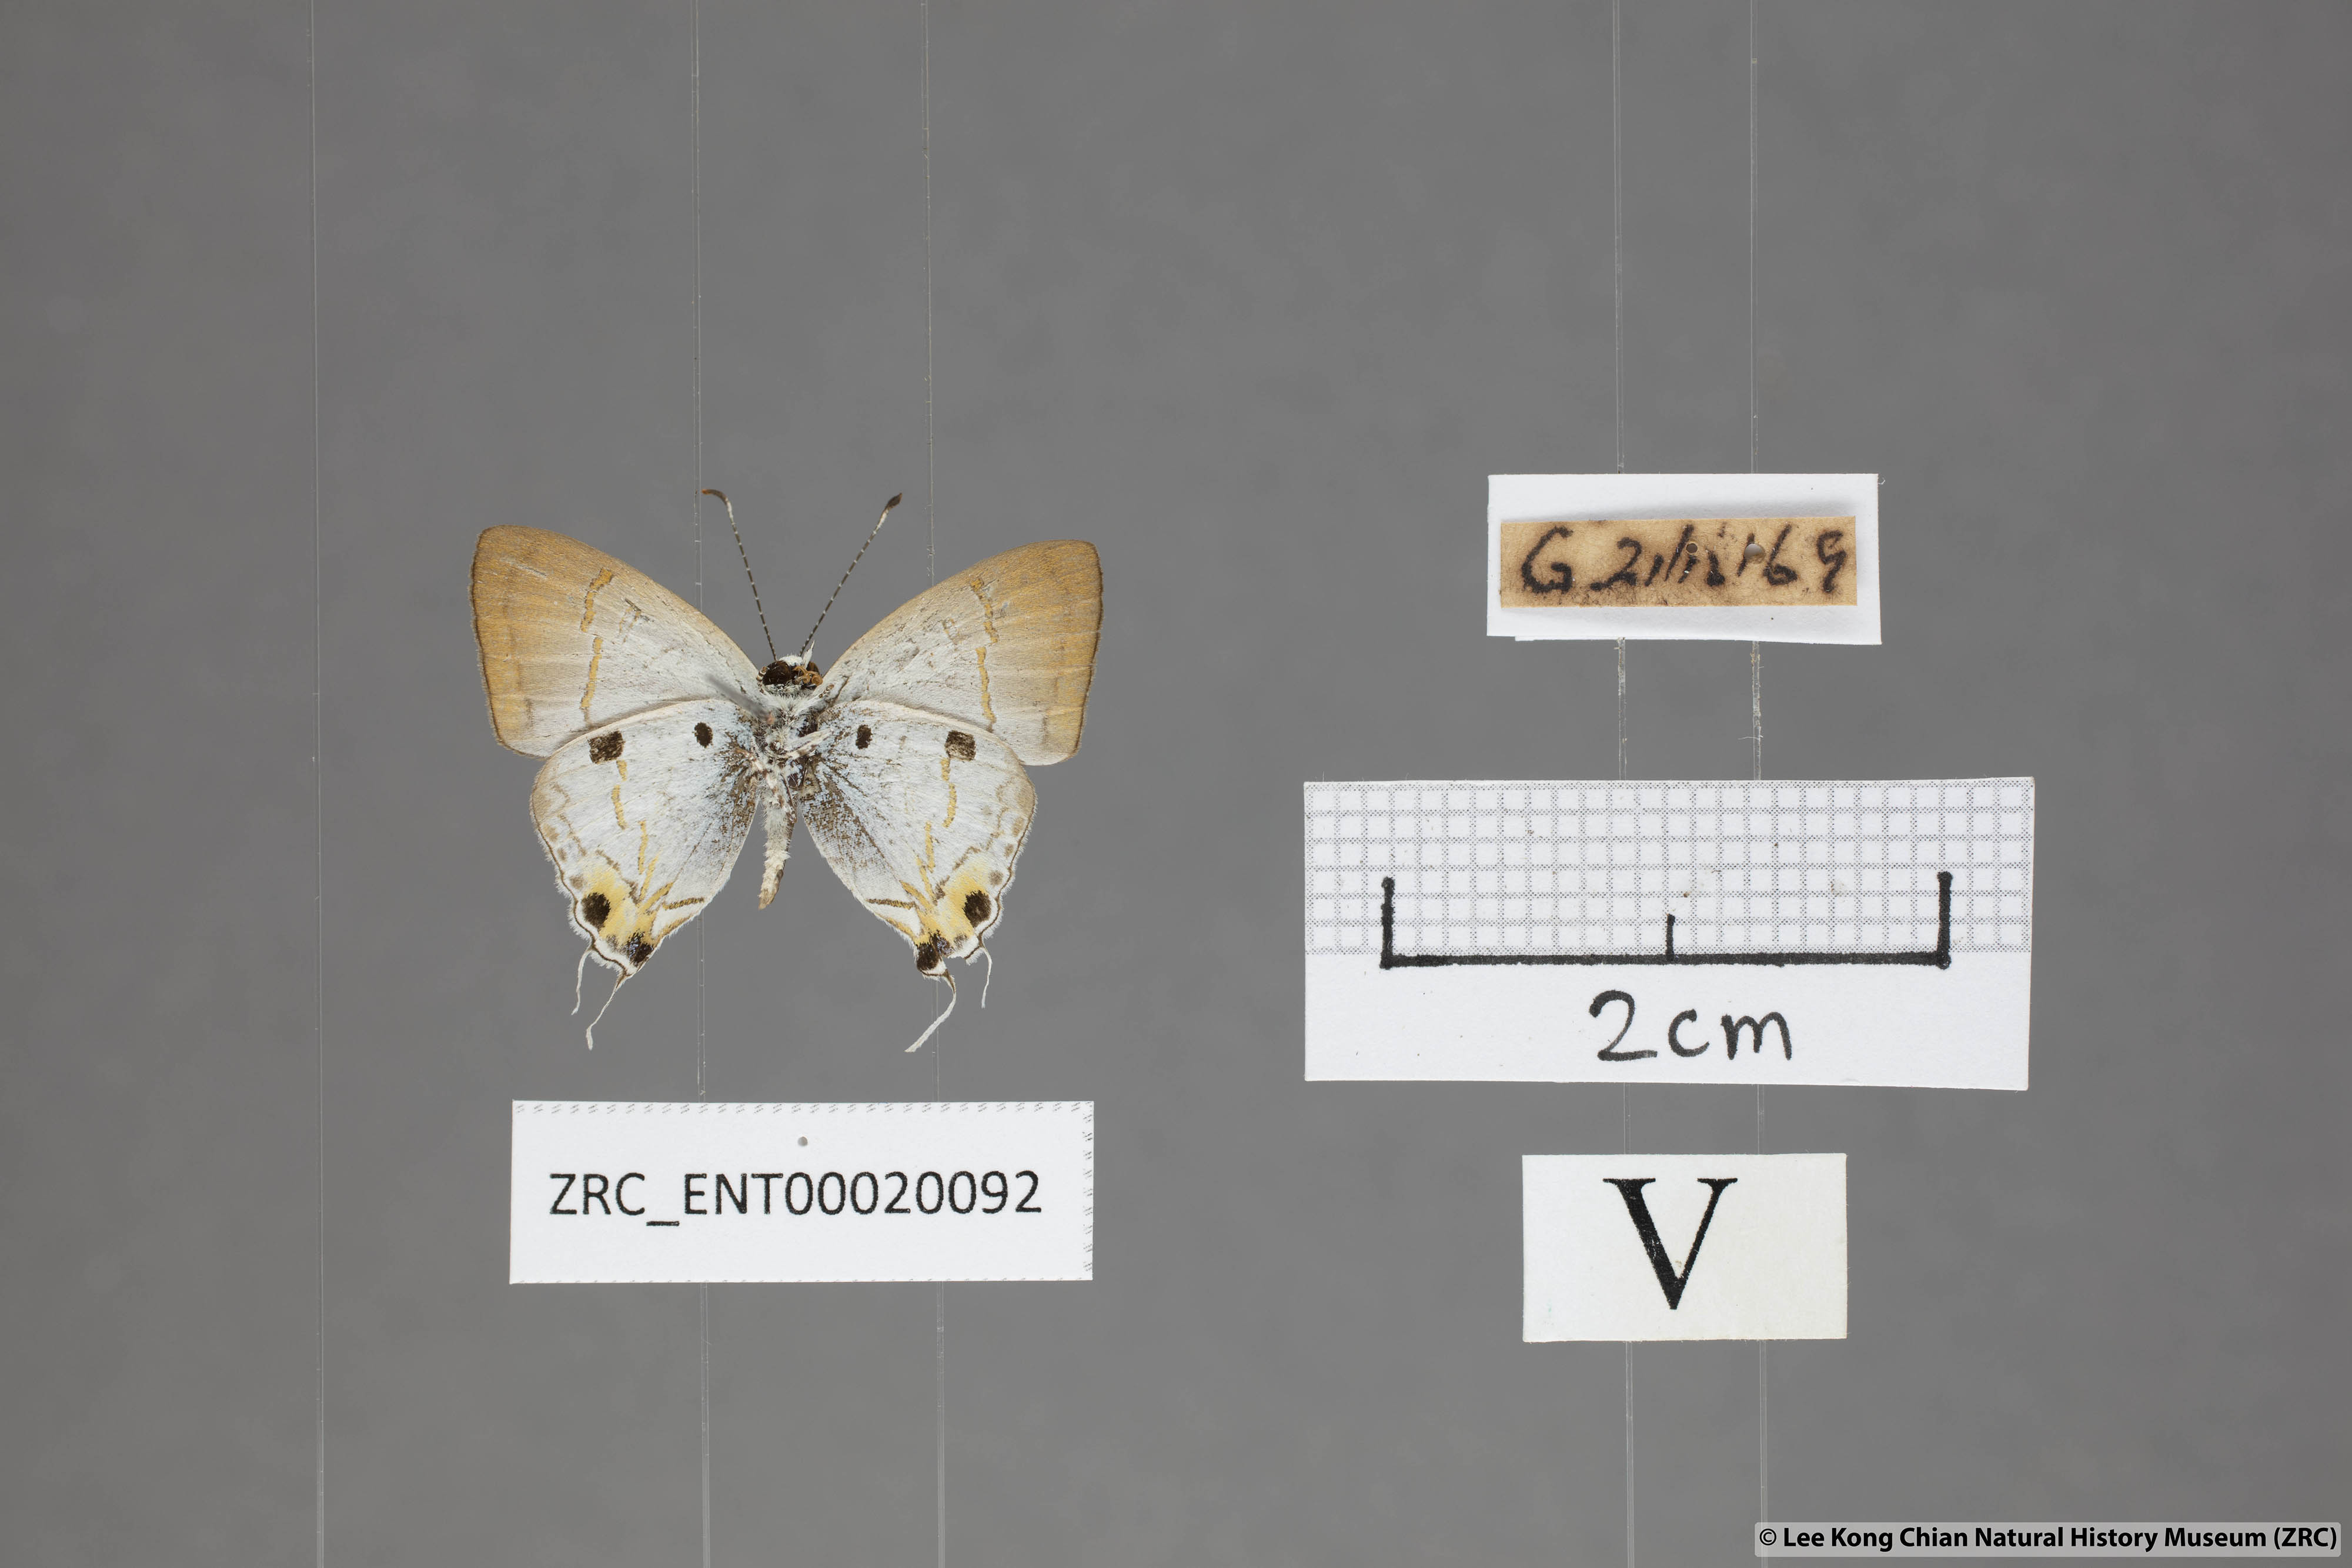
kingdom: Animalia
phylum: Arthropoda
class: Insecta
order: Lepidoptera
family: Lycaenidae
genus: Chliaria
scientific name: Chliaria balua
